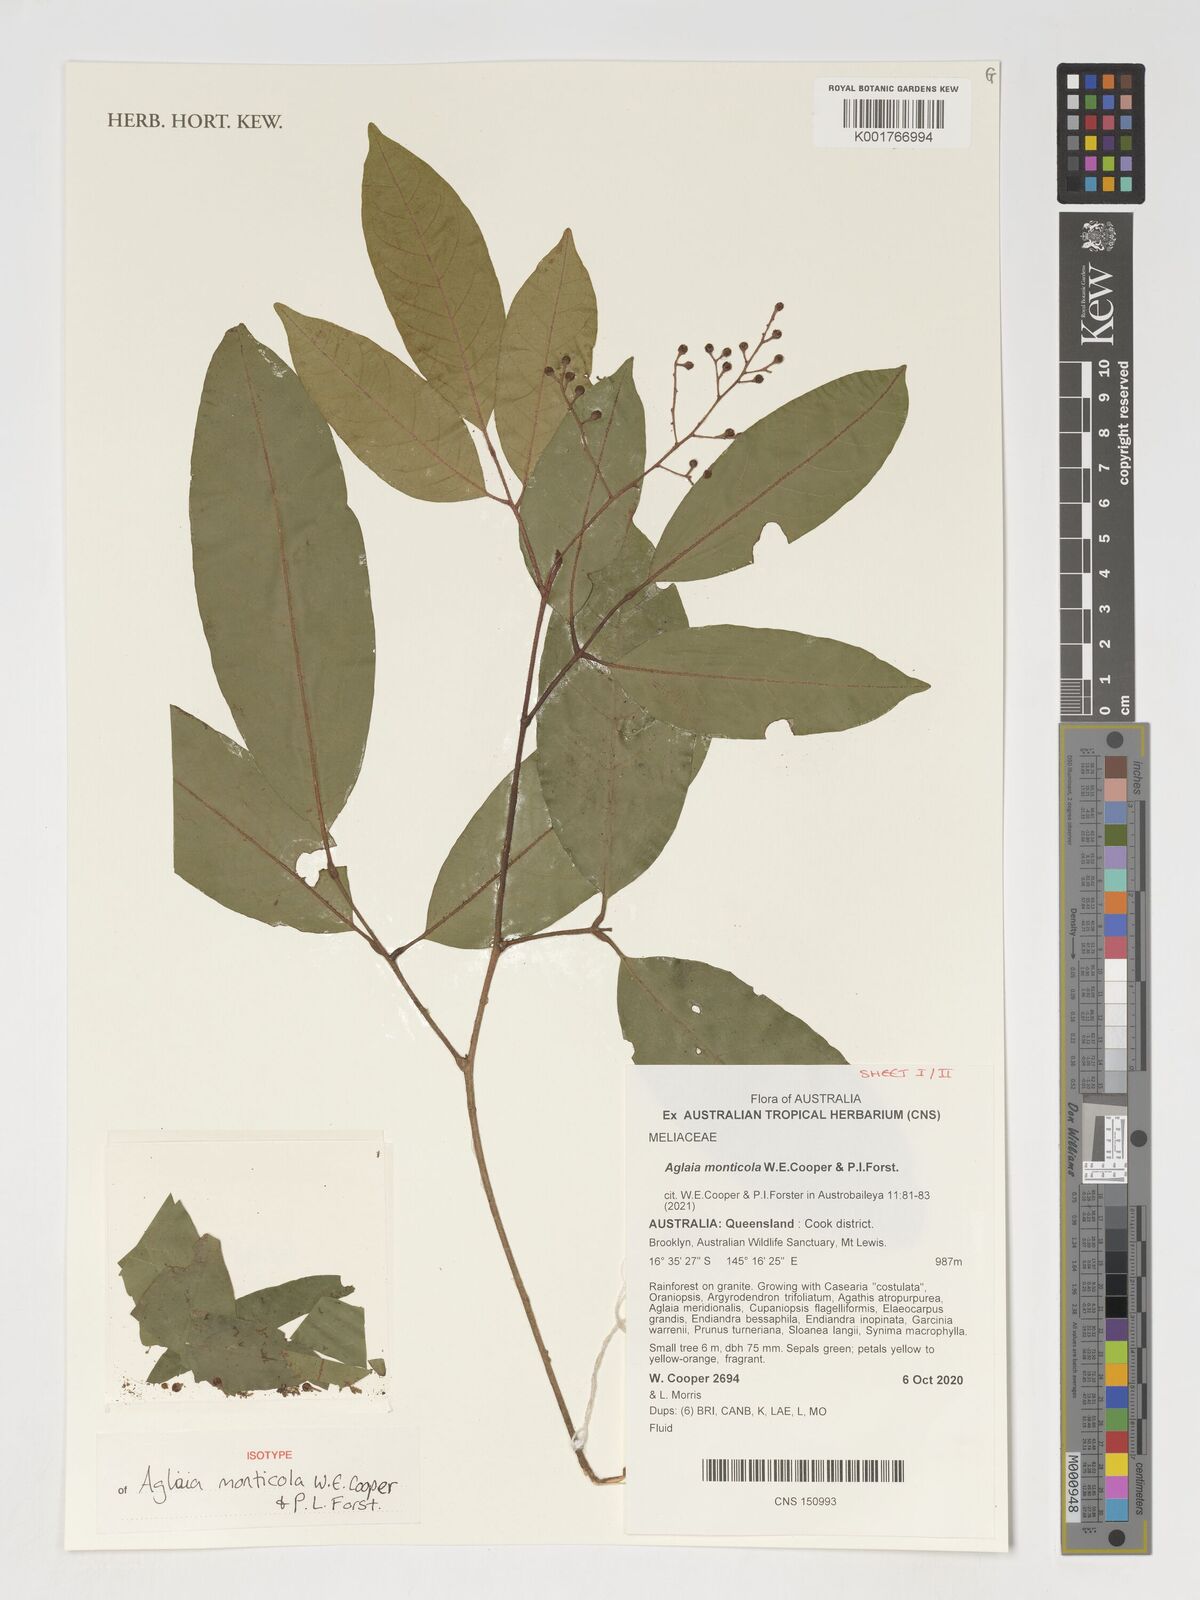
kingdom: Plantae
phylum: Tracheophyta
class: Magnoliopsida
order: Sapindales
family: Meliaceae
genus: Aglaia
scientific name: Aglaia
